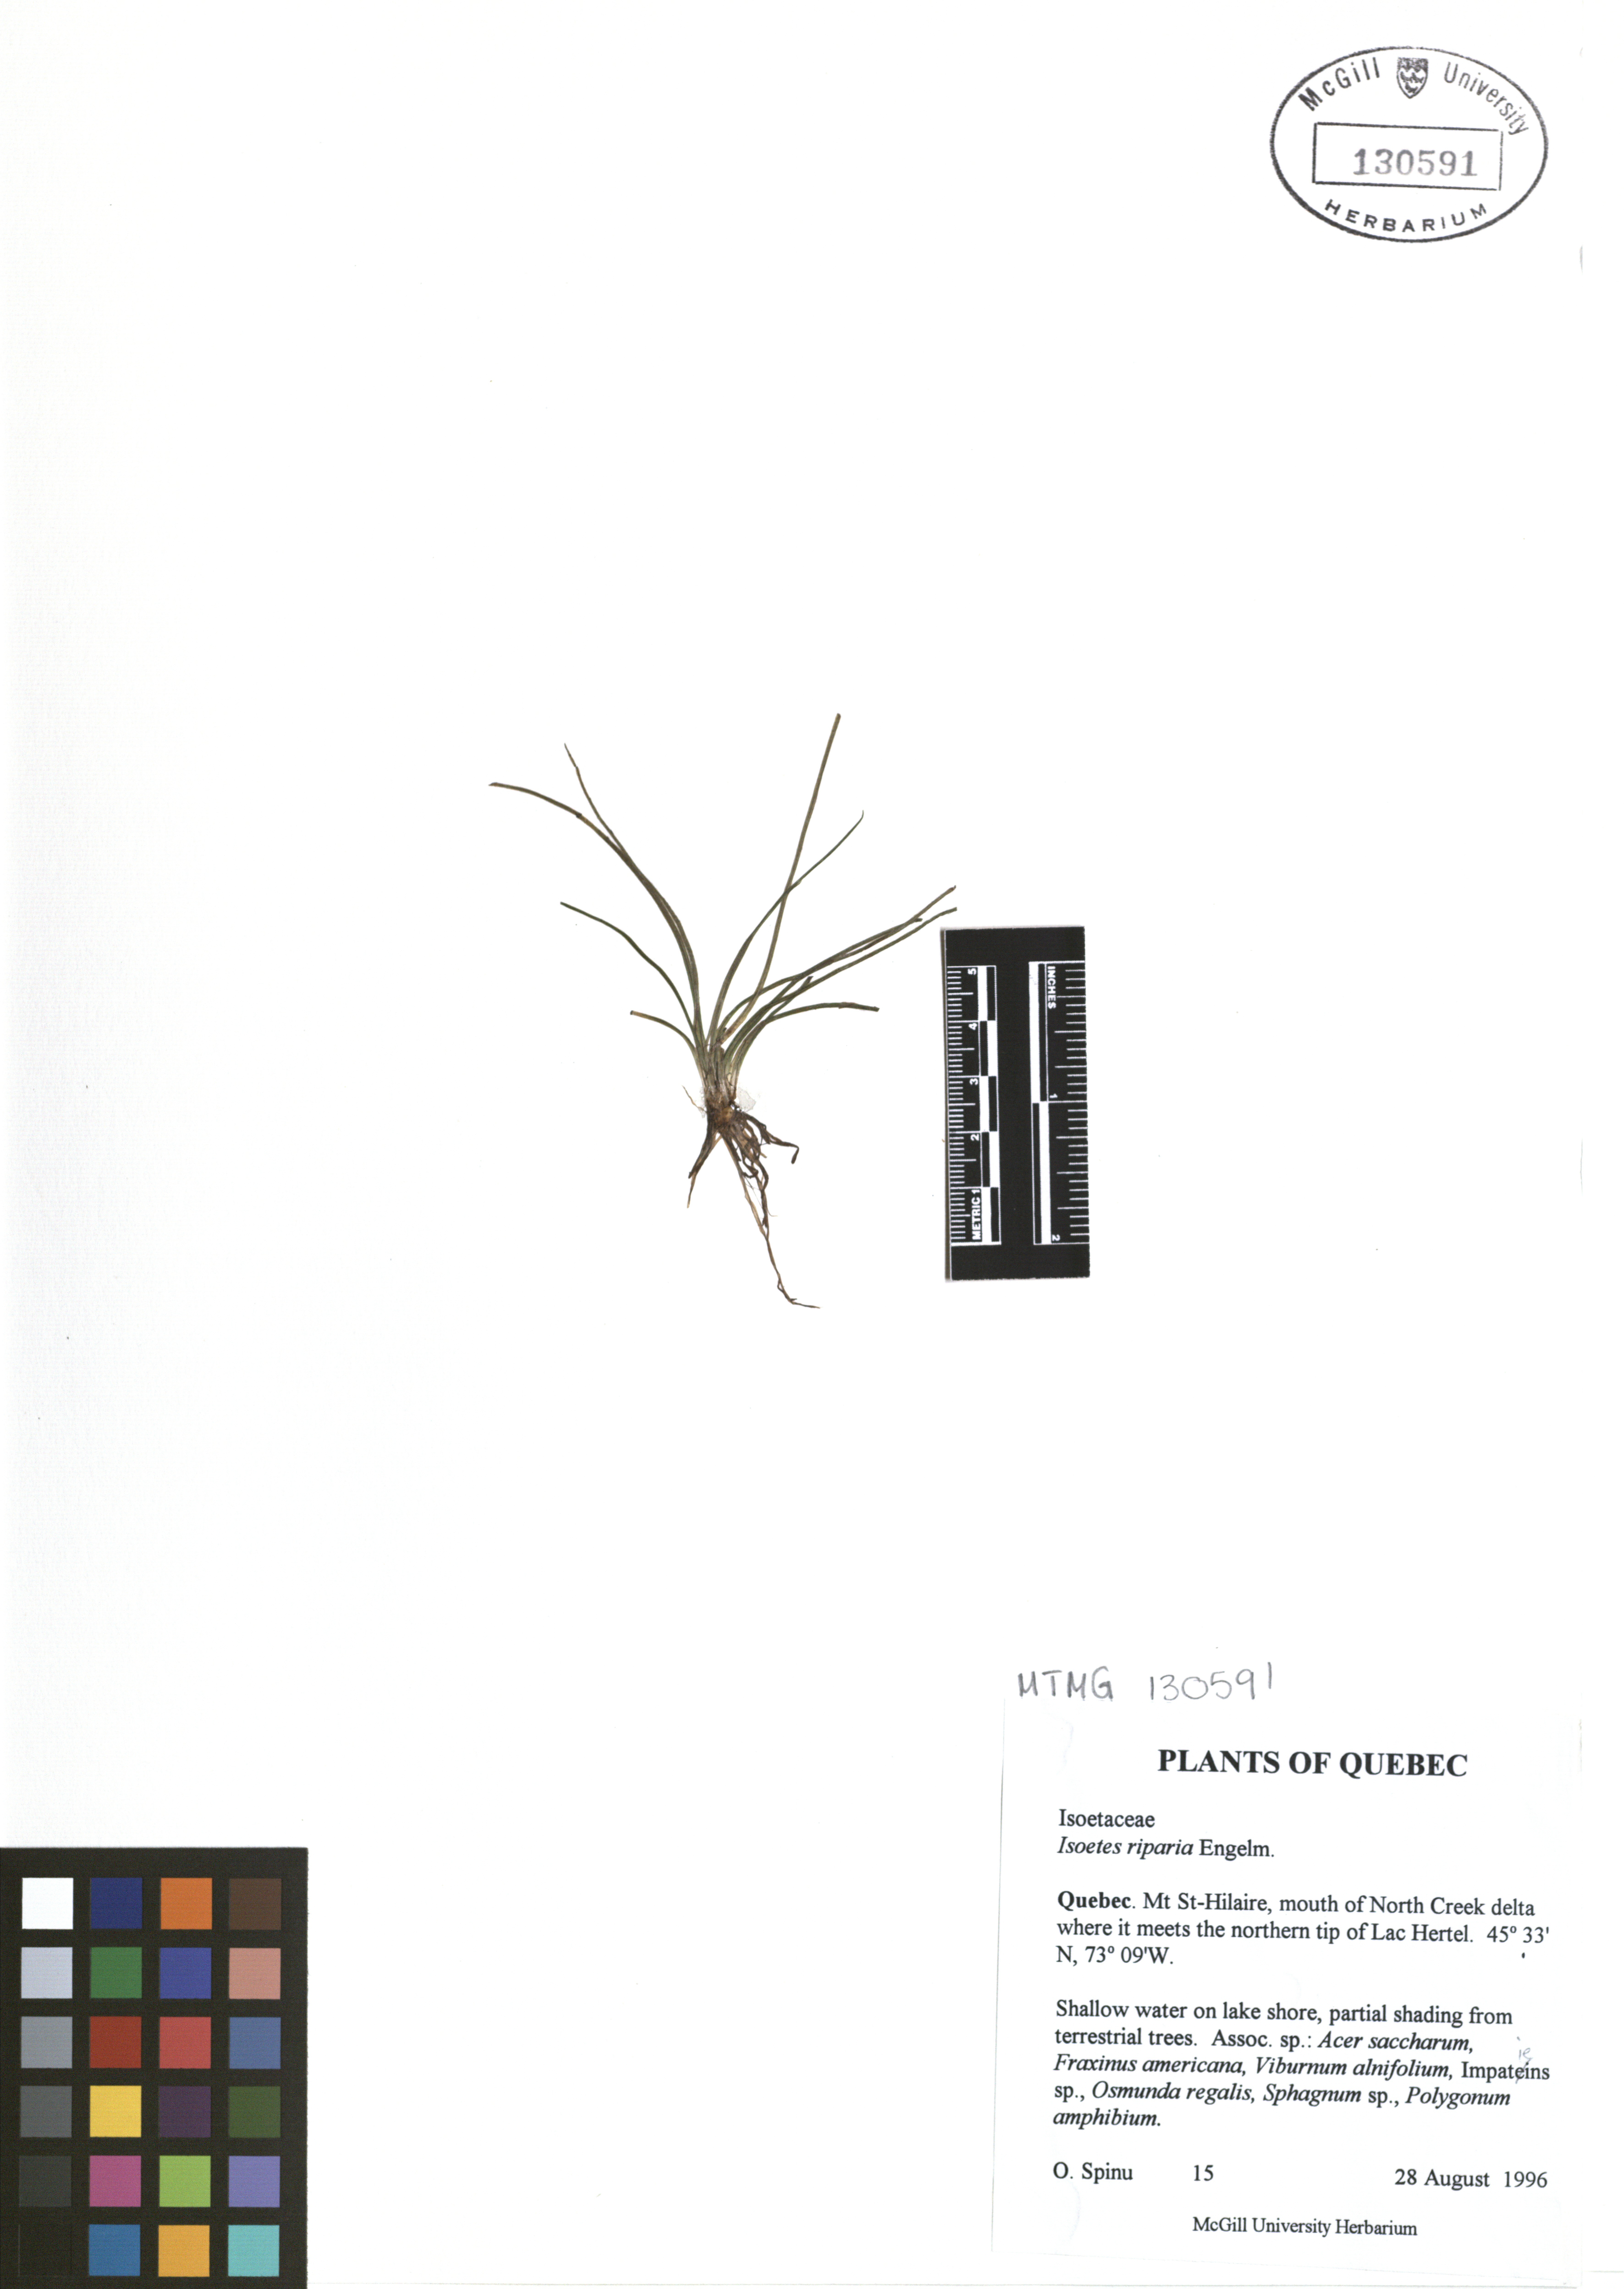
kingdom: Plantae
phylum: Tracheophyta
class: Lycopodiopsida
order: Isoetales
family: Isoetaceae
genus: Isoetes
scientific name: Isoetes riparia
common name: Riverbank quillwort
